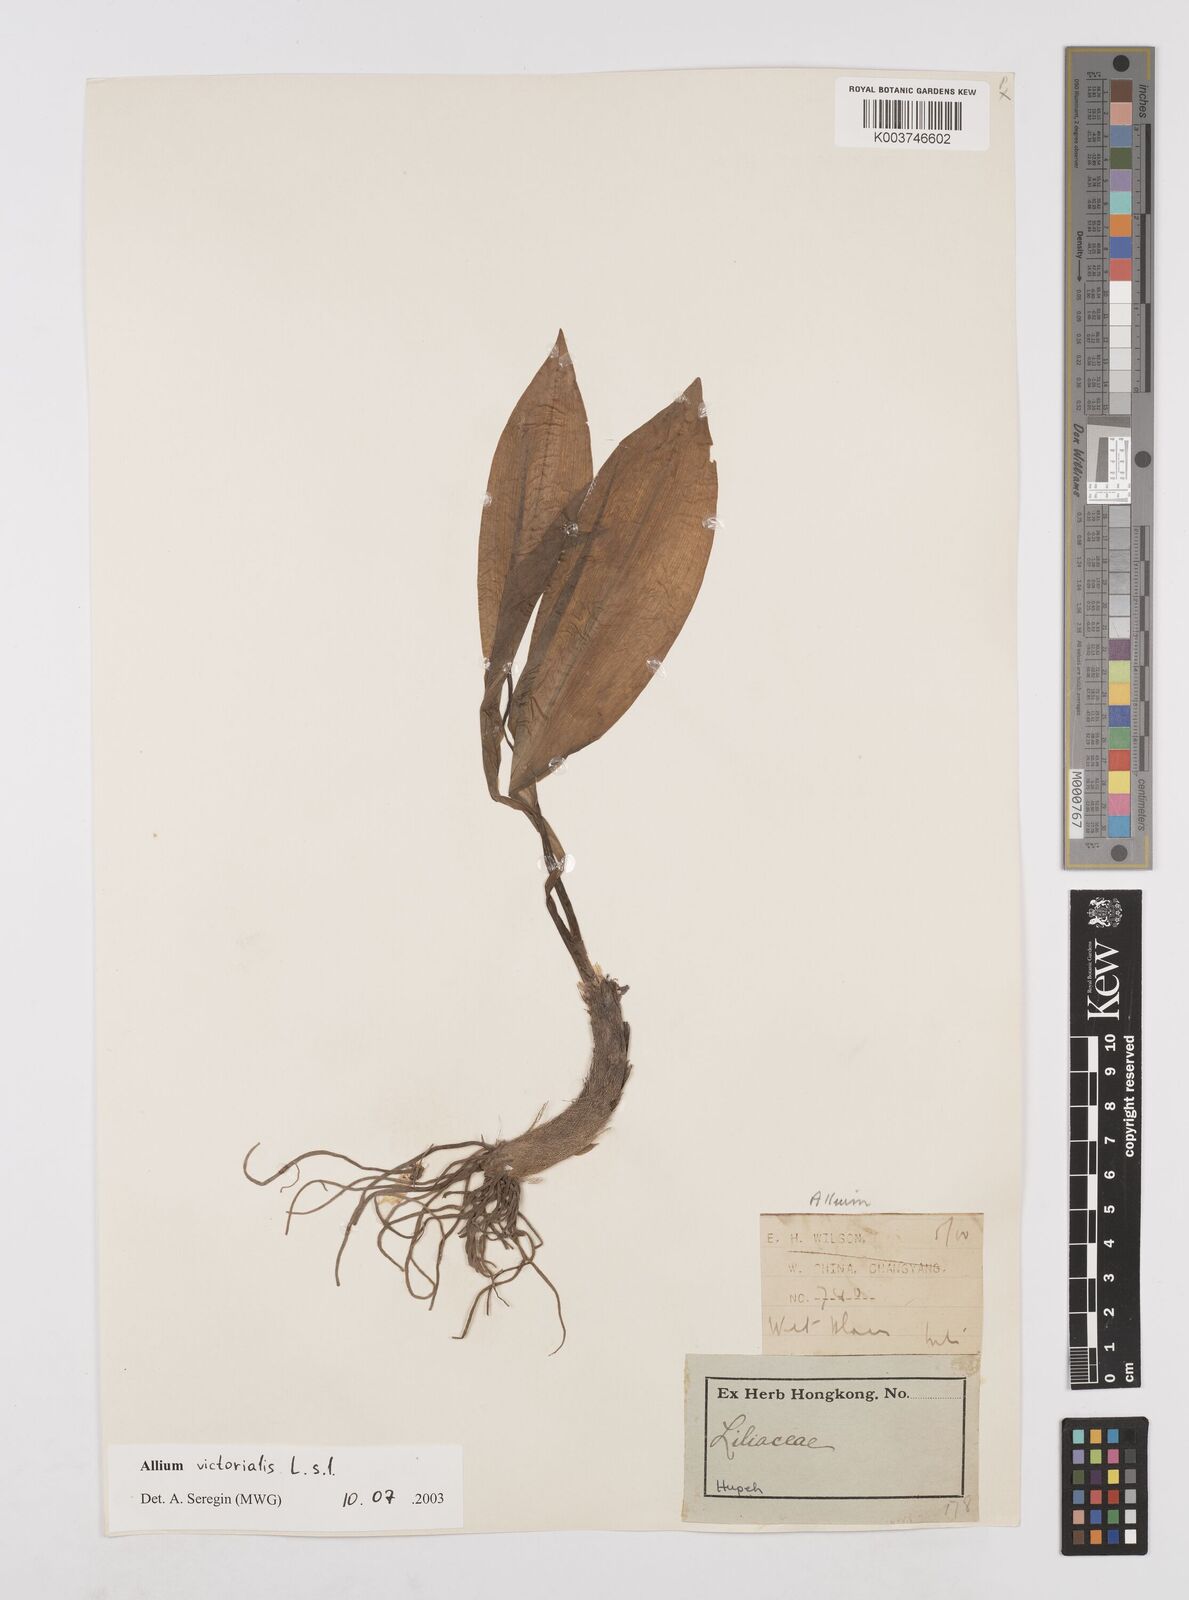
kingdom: Plantae
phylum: Tracheophyta
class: Liliopsida
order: Asparagales
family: Amaryllidaceae
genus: Allium
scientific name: Allium victorialis
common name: Alpine leek
